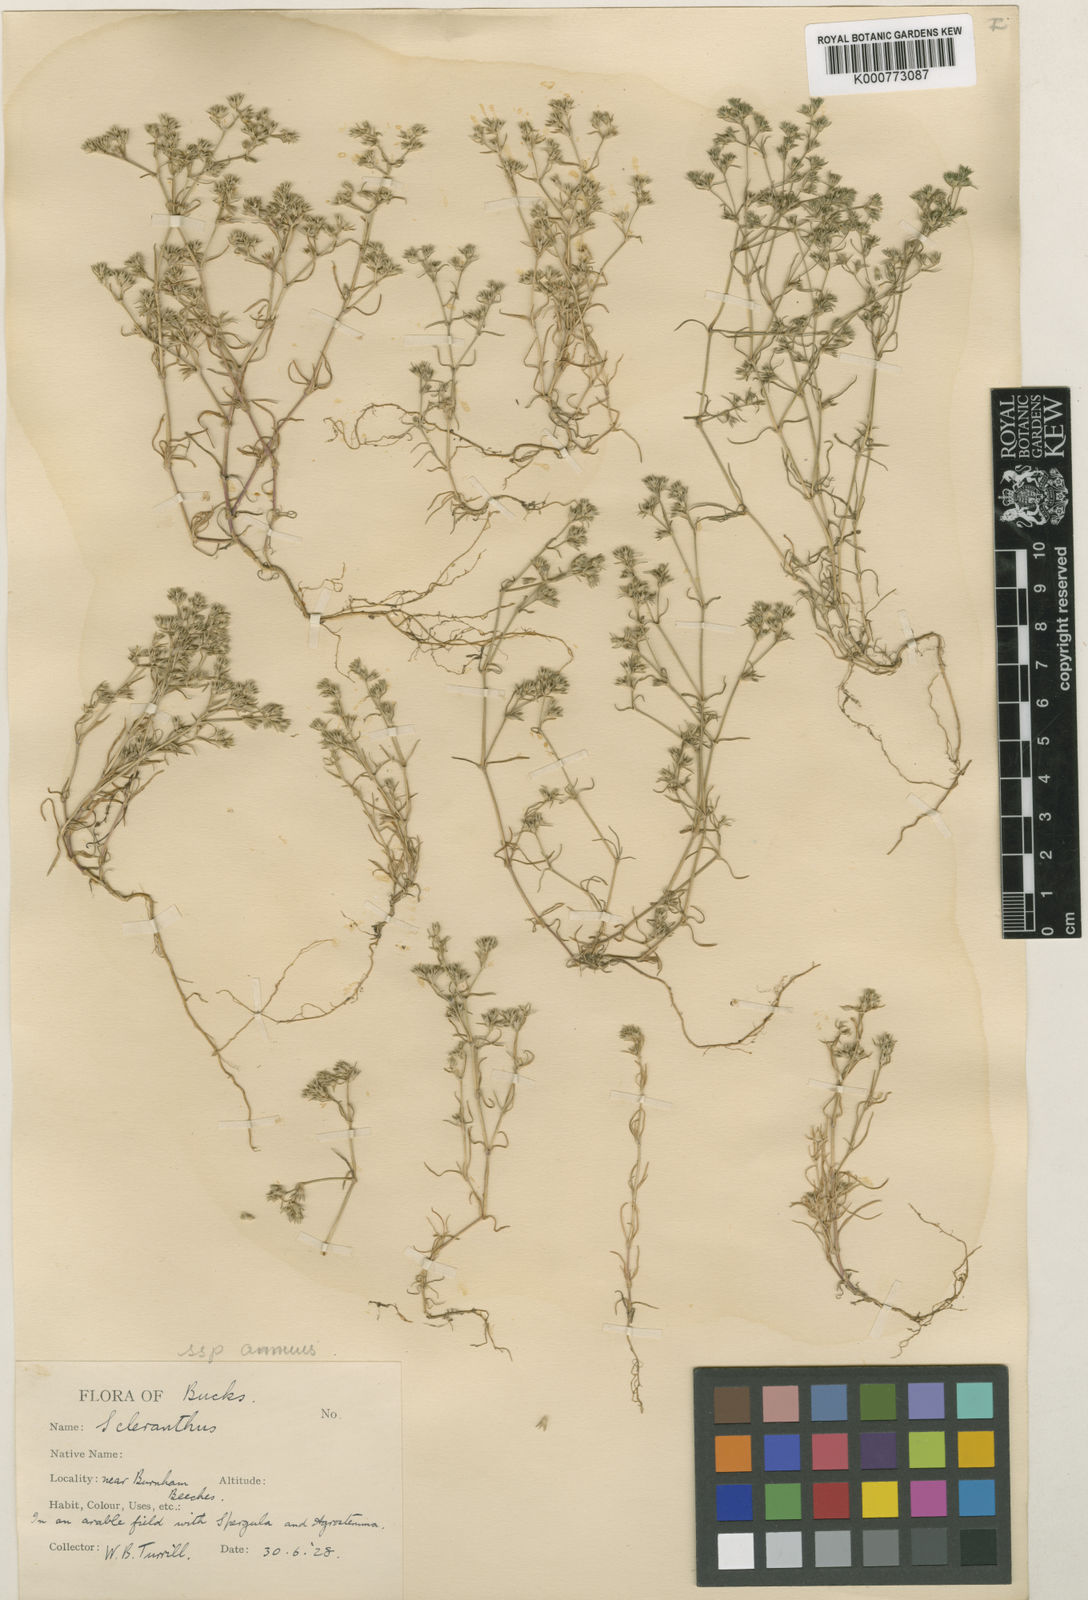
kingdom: Plantae
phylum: Tracheophyta
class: Magnoliopsida
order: Caryophyllales
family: Caryophyllaceae
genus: Scleranthus
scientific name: Scleranthus annuus
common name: Annual knawel
